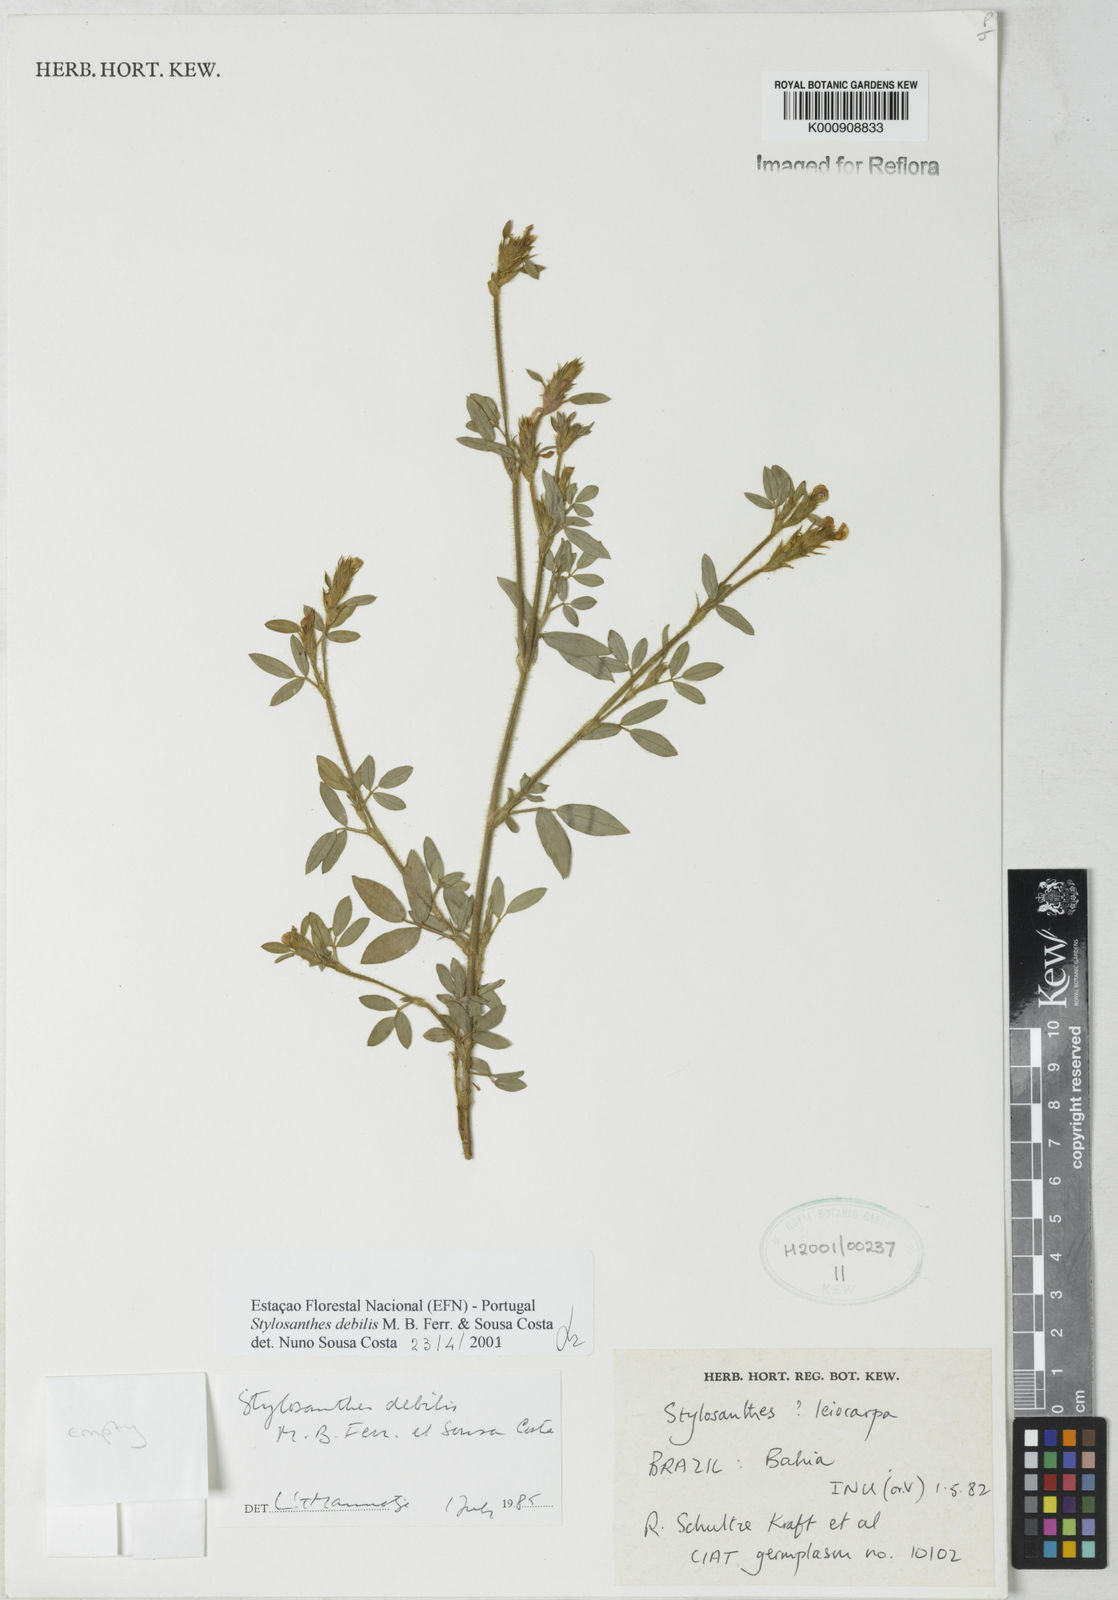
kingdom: Plantae
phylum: Tracheophyta
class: Magnoliopsida
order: Fabales
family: Fabaceae
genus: Stylosanthes
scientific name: Stylosanthes viscosa
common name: Viscid pencil-flower
